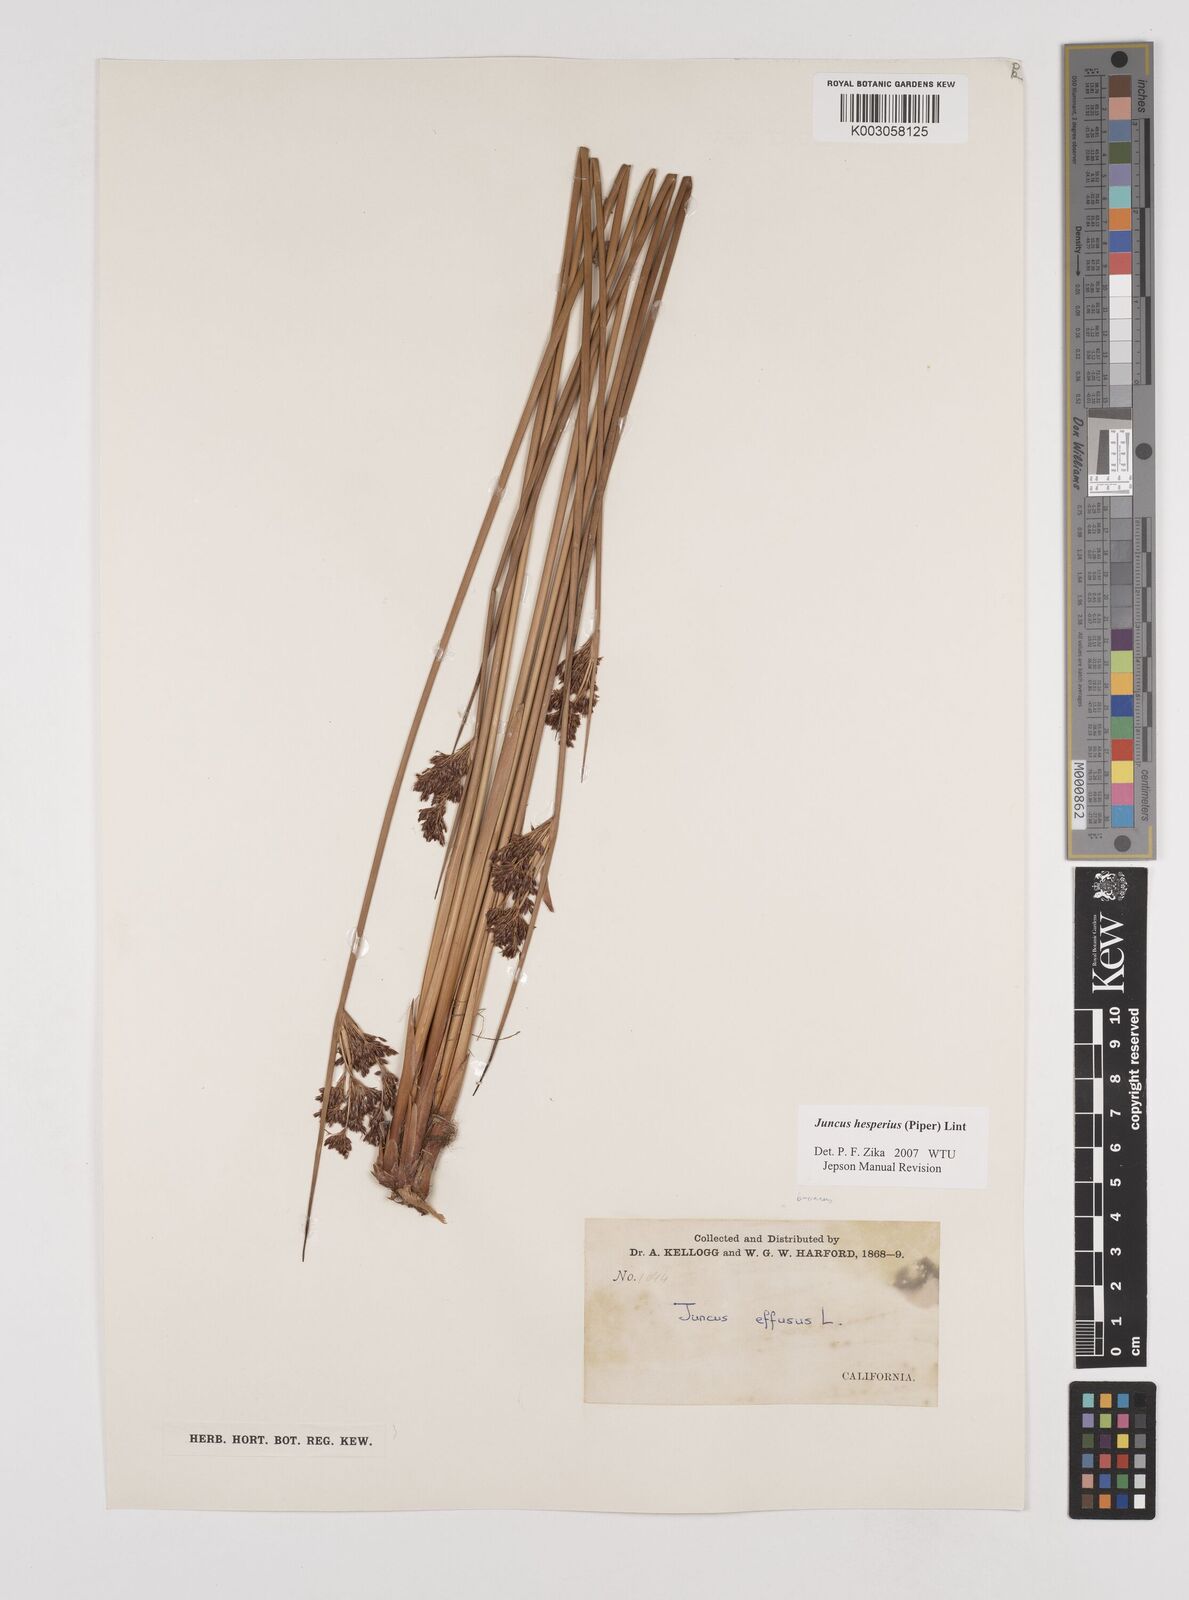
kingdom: Plantae
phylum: Tracheophyta
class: Liliopsida
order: Poales
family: Juncaceae
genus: Juncus
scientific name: Juncus hesperius
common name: Coast rush
